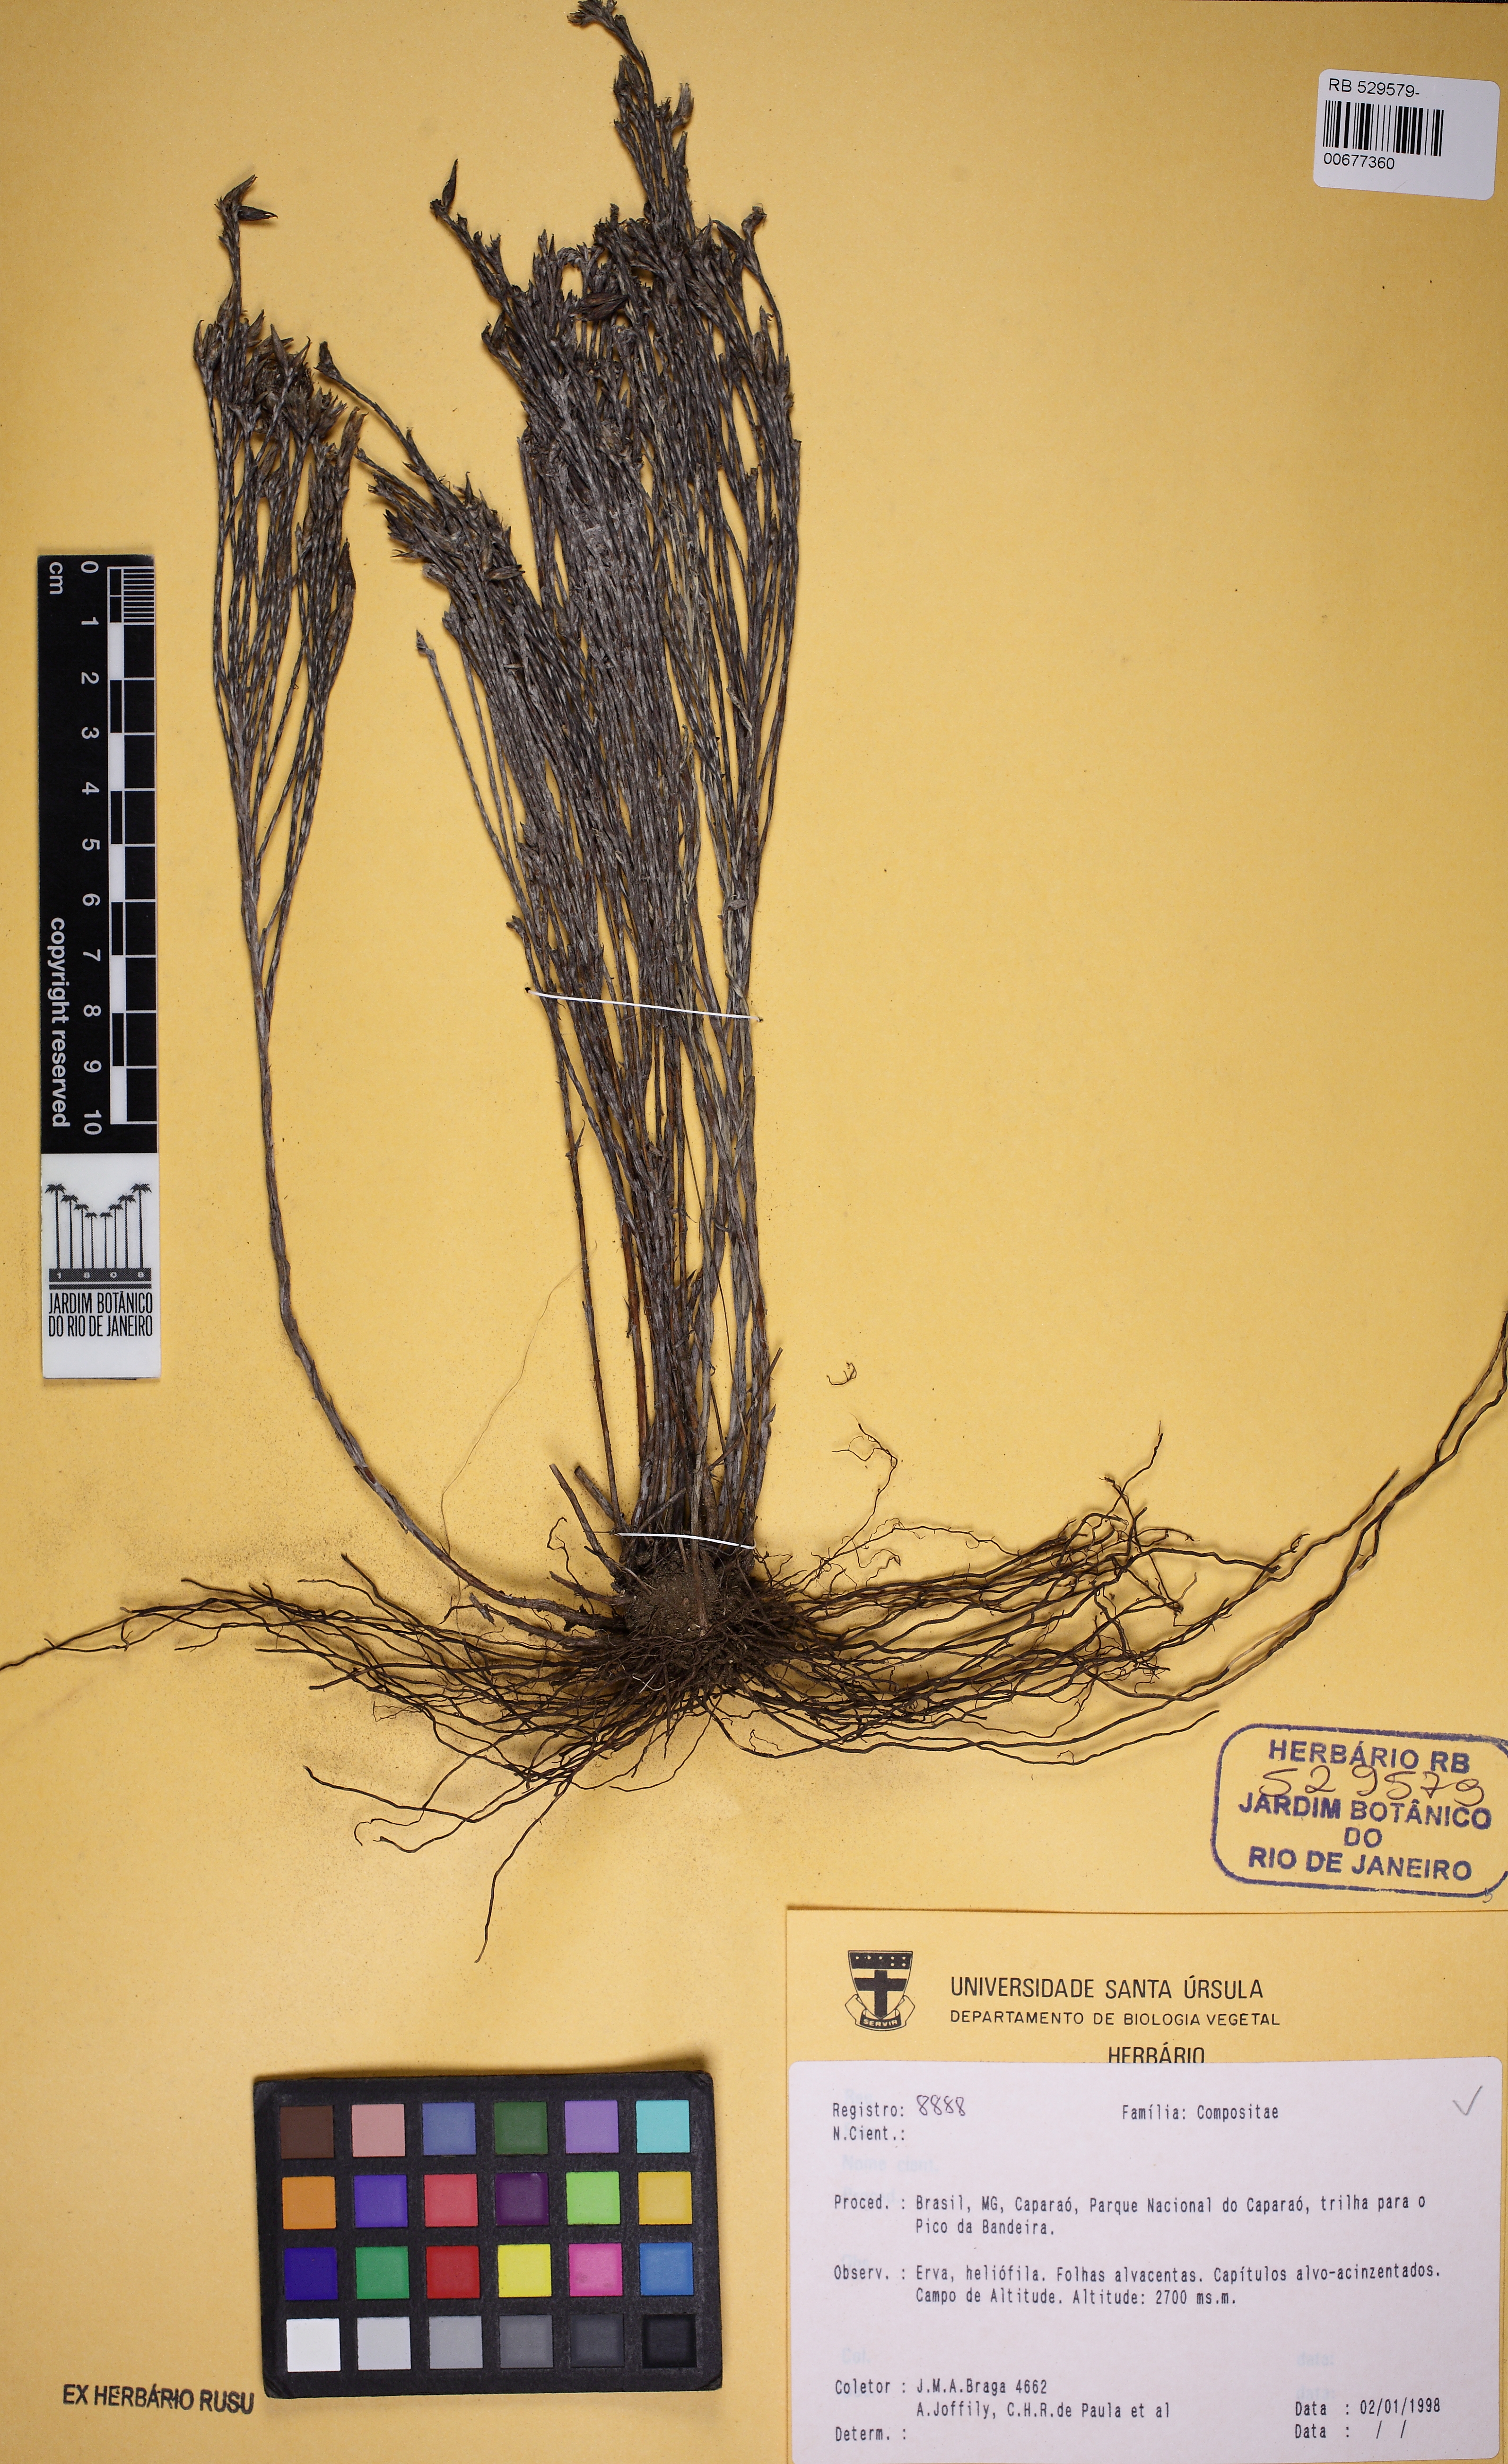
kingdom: Plantae
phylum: Tracheophyta
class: Magnoliopsida
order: Asterales
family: Asteraceae
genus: Lucilia
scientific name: Lucilia lycopodioides
